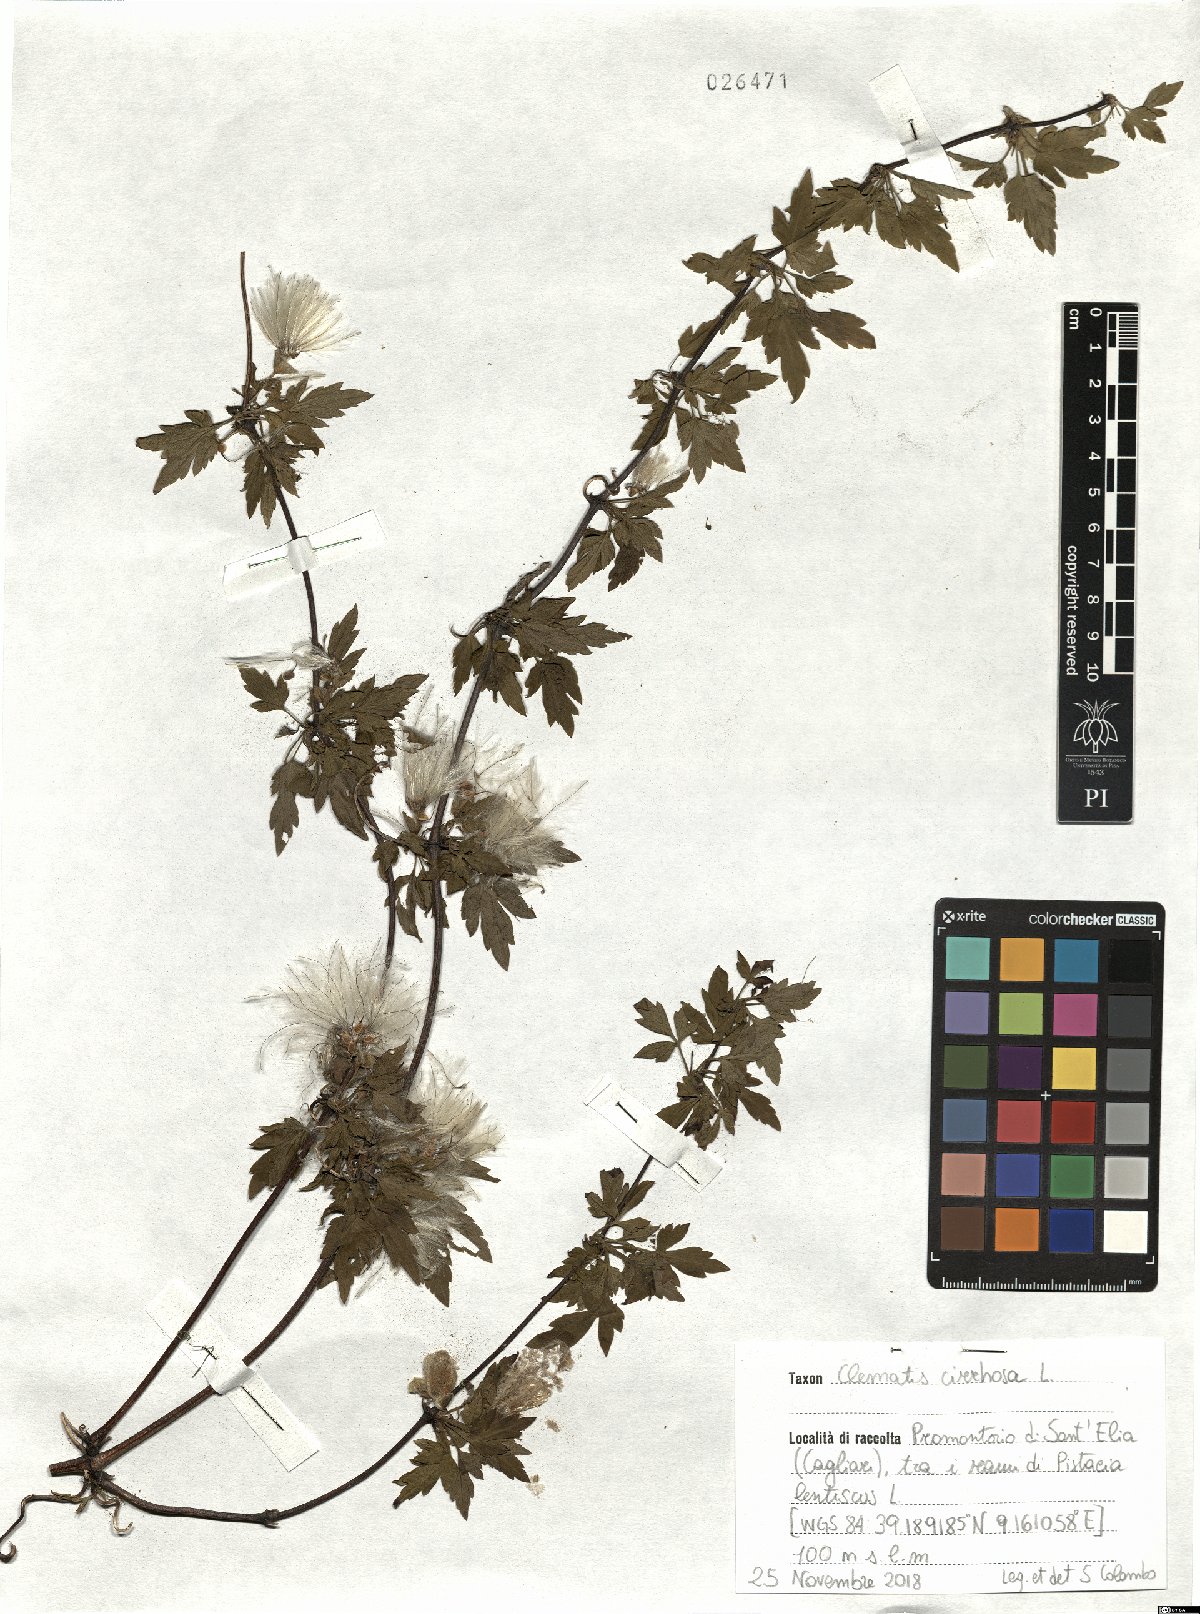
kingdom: Plantae
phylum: Tracheophyta
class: Magnoliopsida
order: Ranunculales
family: Ranunculaceae
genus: Clematis
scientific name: Clematis cirrhosa
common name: Early virgin's-bower
